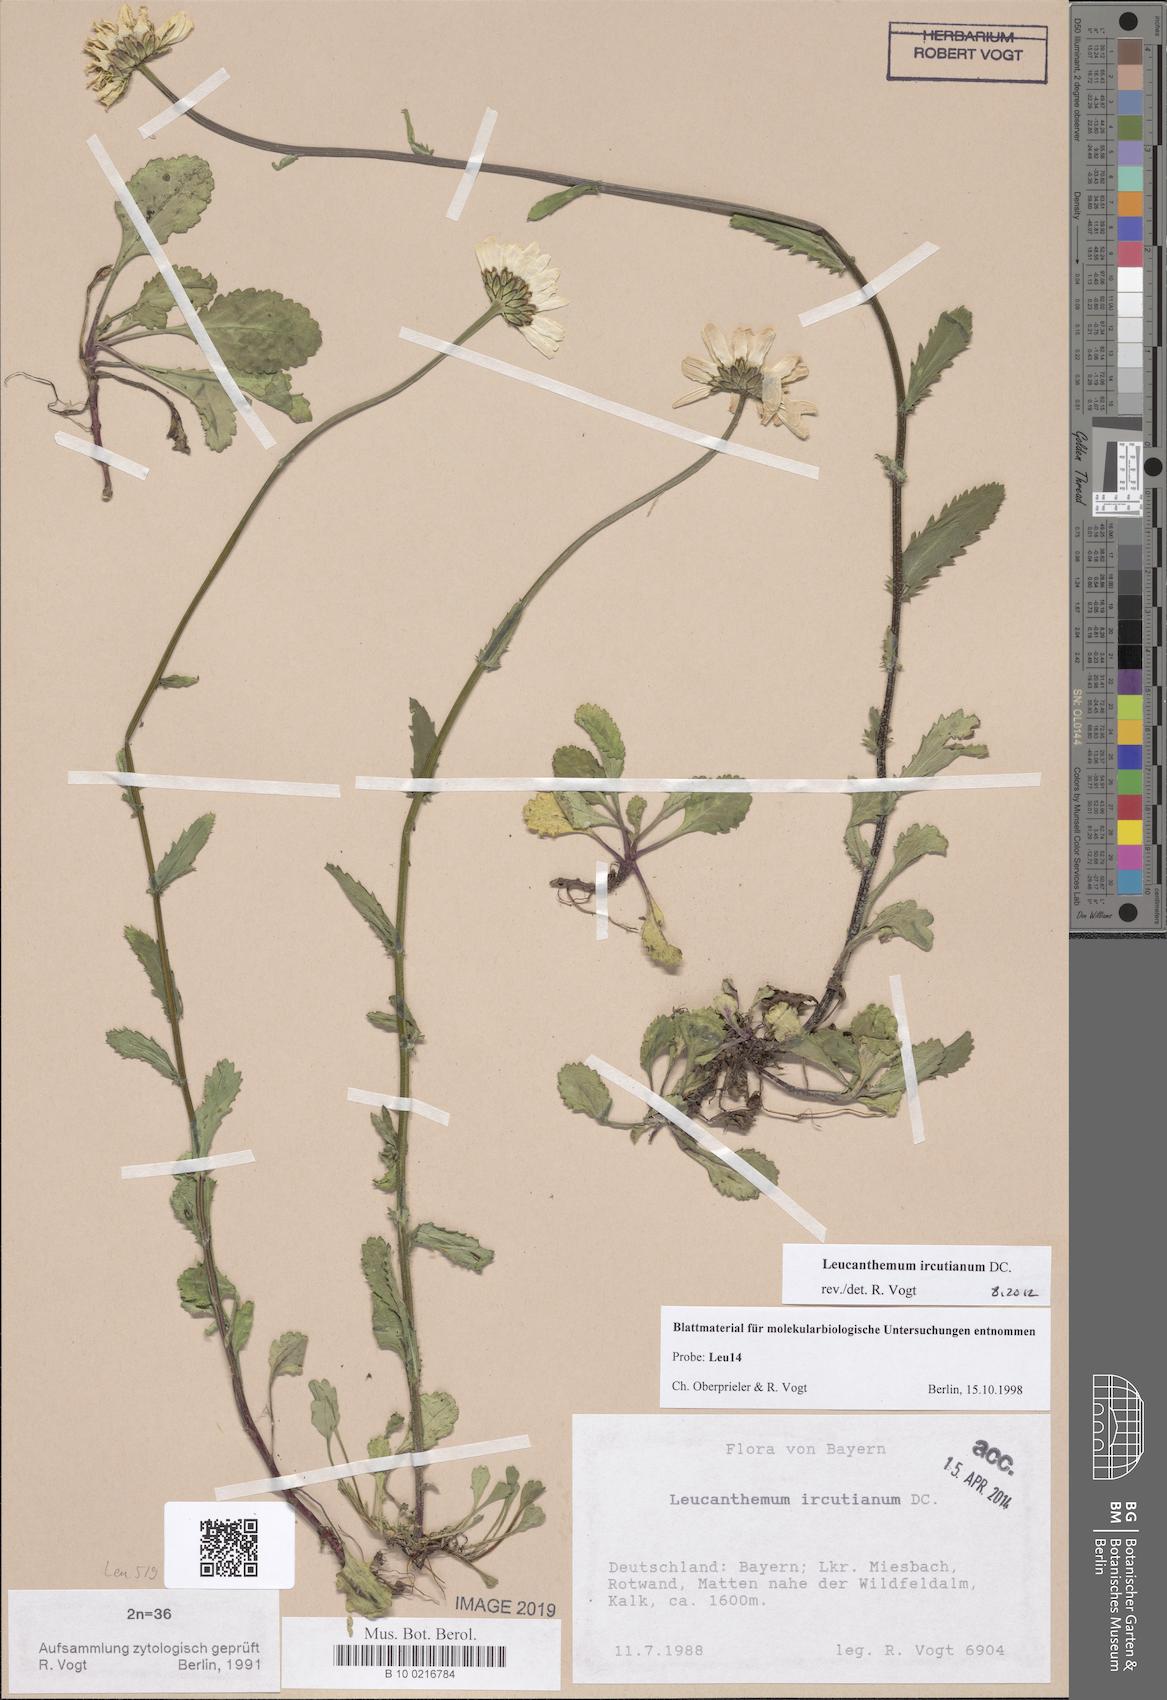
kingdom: Plantae
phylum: Tracheophyta
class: Magnoliopsida
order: Asterales
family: Asteraceae
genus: Leucanthemum
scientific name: Leucanthemum ircutianum
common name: Daisy
